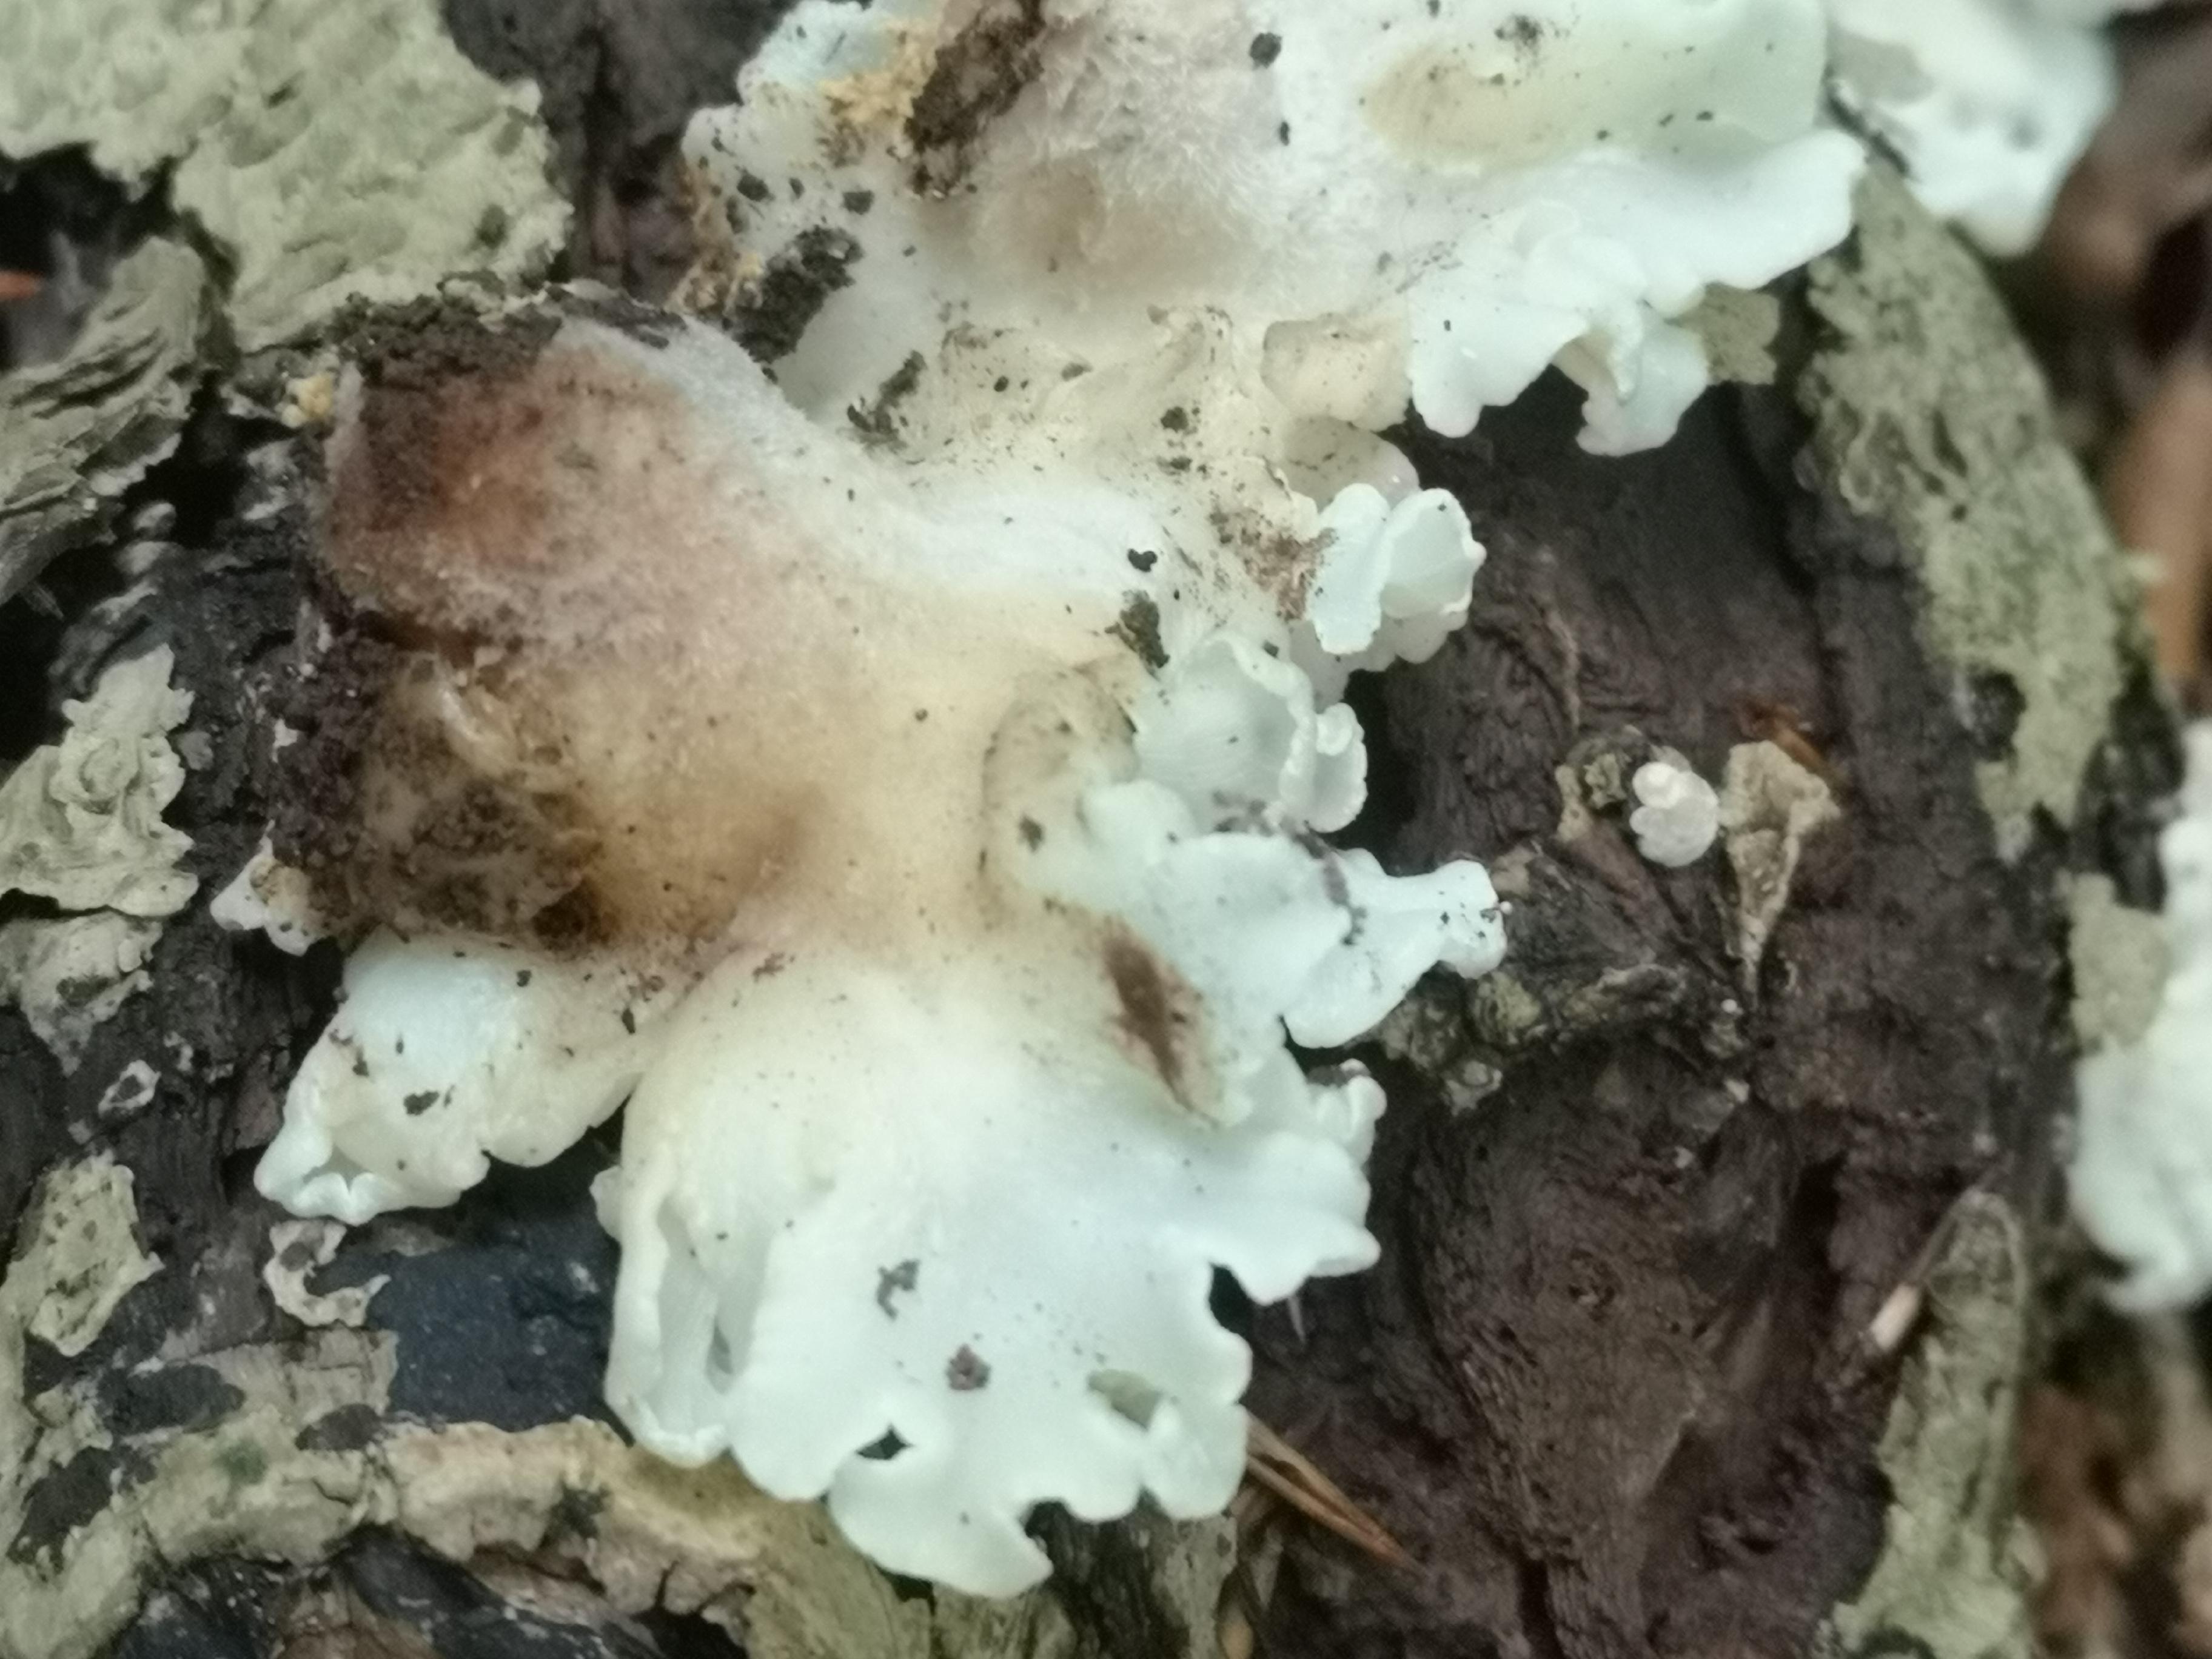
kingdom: Fungi
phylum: Basidiomycota
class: Agaricomycetes
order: Agaricales
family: Entolomataceae
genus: Clitopilus
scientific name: Clitopilus
